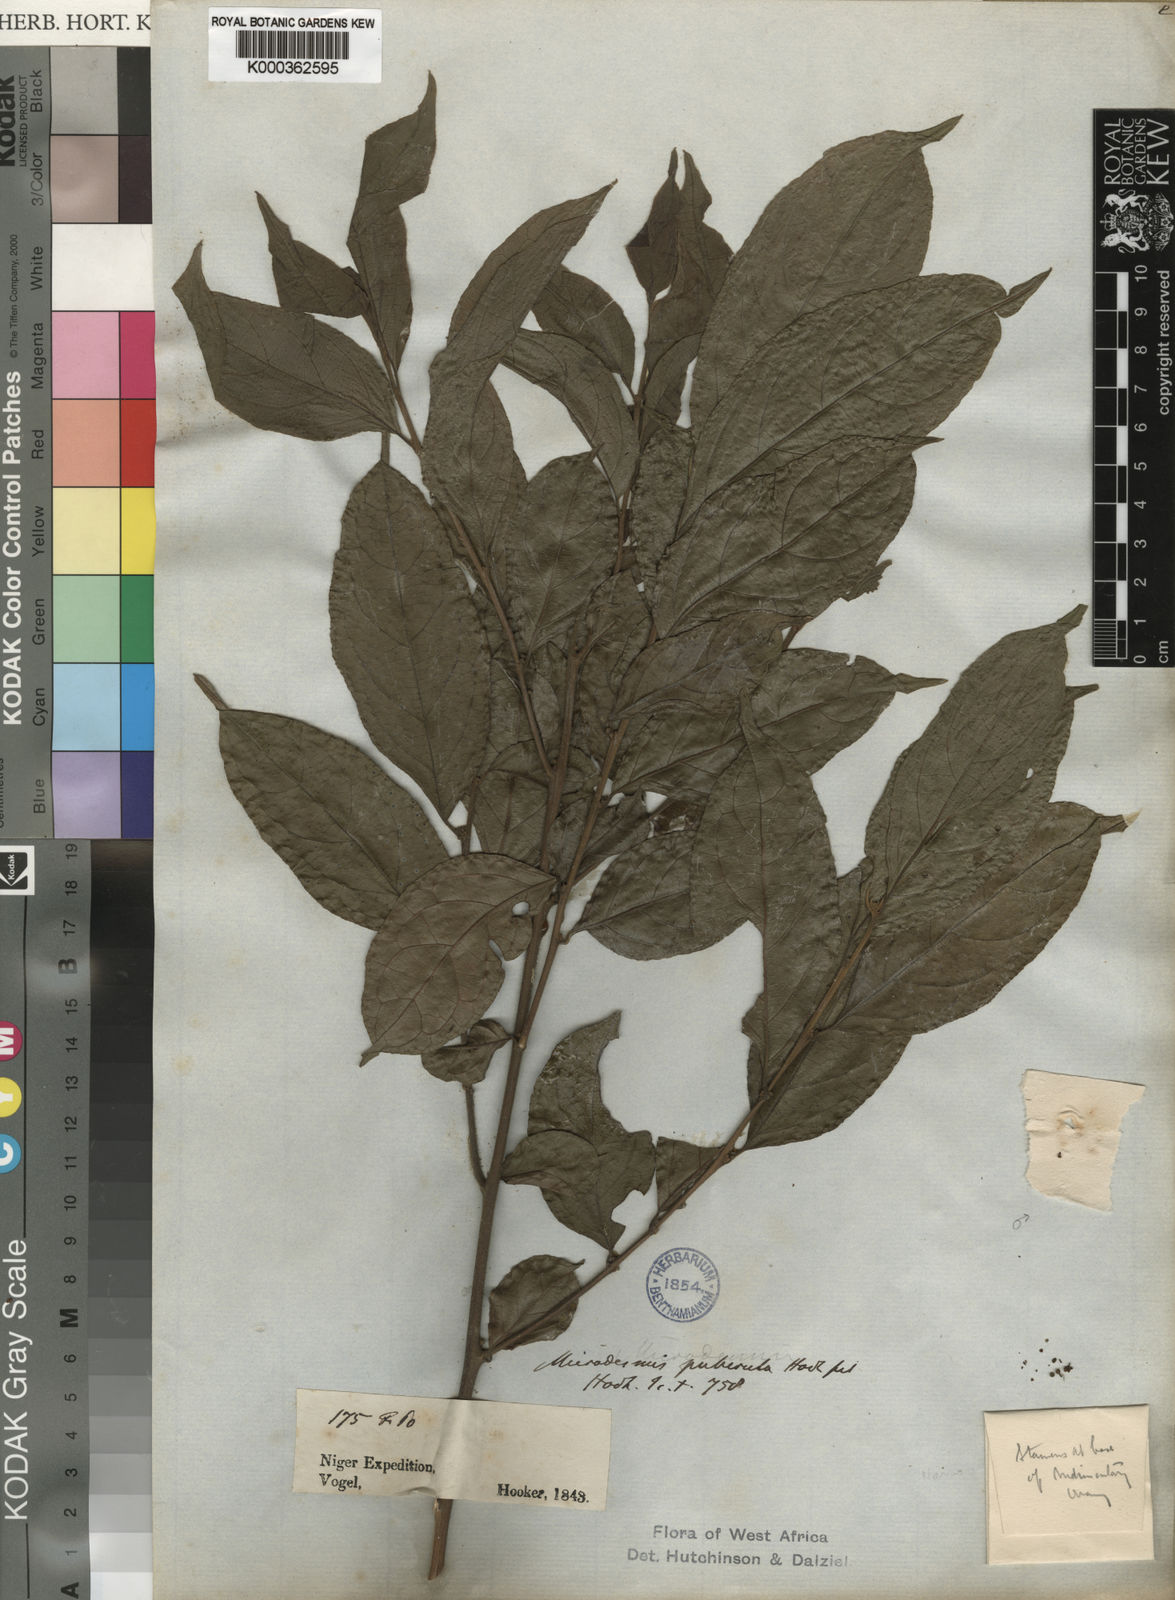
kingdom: Plantae
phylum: Tracheophyta
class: Magnoliopsida
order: Malpighiales
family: Pandaceae
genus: Microdesmis
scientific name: Microdesmis puberula
